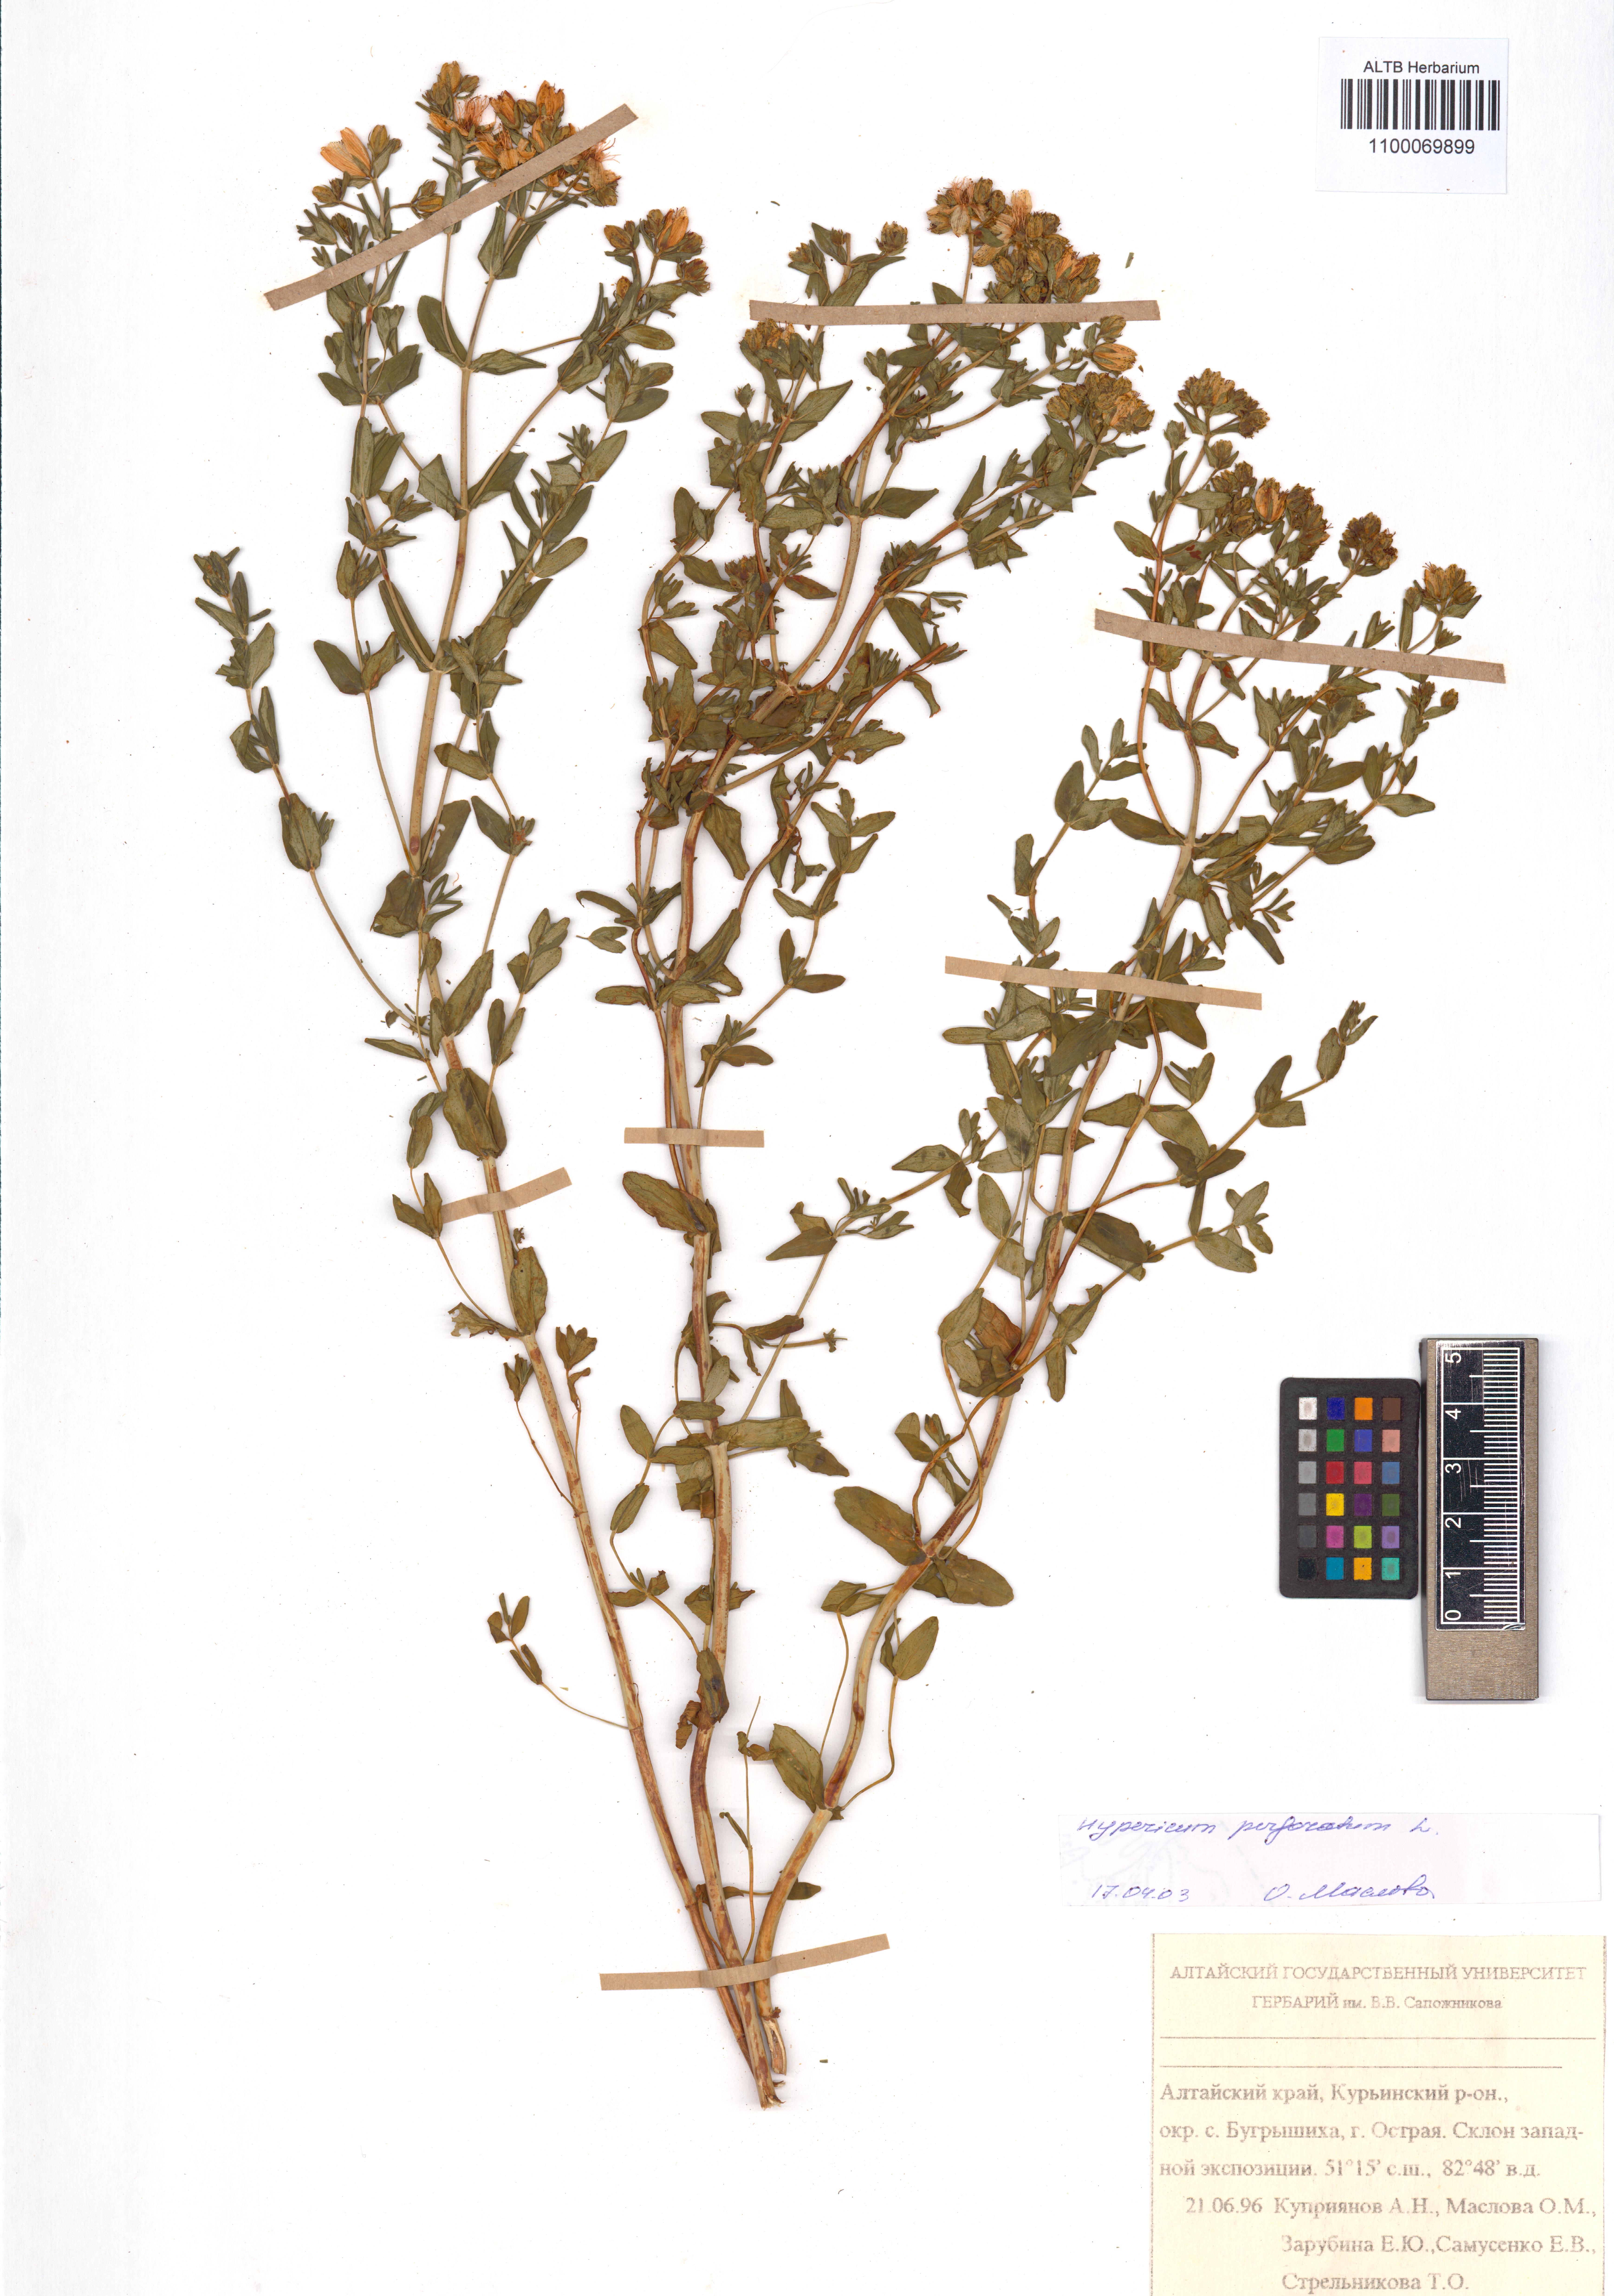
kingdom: Plantae
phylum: Tracheophyta
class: Magnoliopsida
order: Malpighiales
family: Hypericaceae
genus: Hypericum
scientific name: Hypericum perforatum
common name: Common st. johnswort
